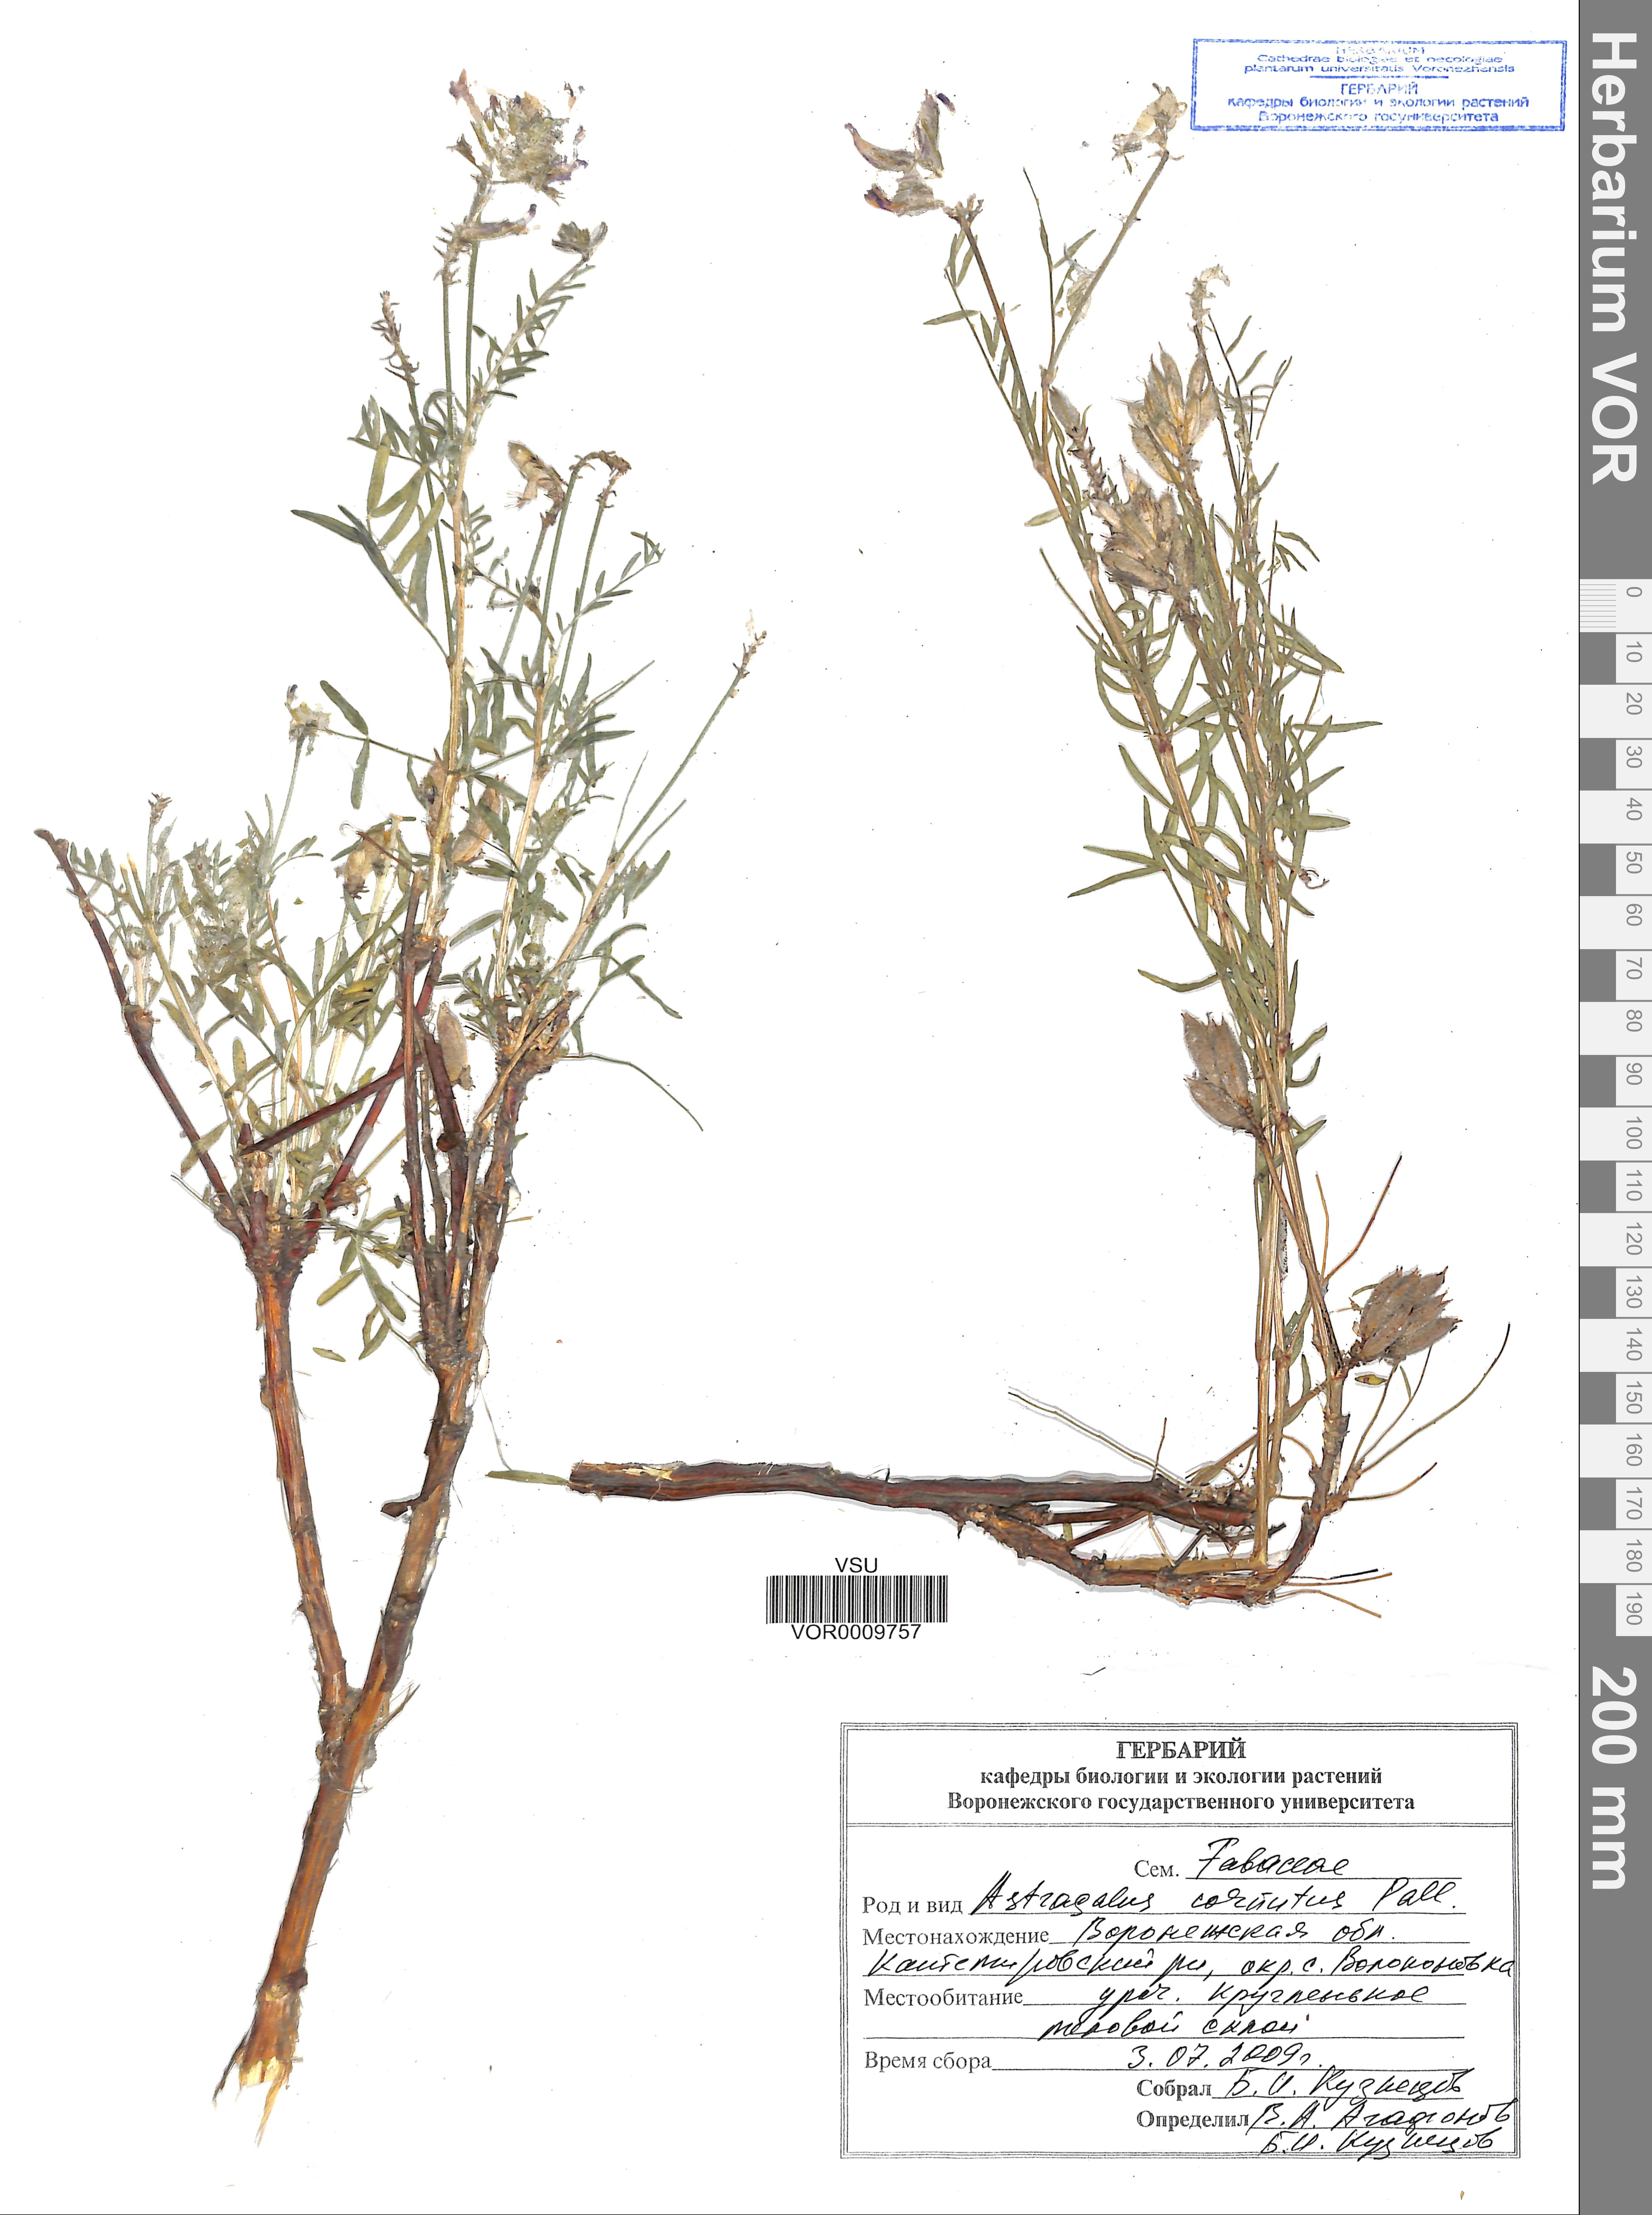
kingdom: Plantae
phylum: Tracheophyta
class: Magnoliopsida
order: Fabales
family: Fabaceae
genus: Astragalus
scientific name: Astragalus cornutus
